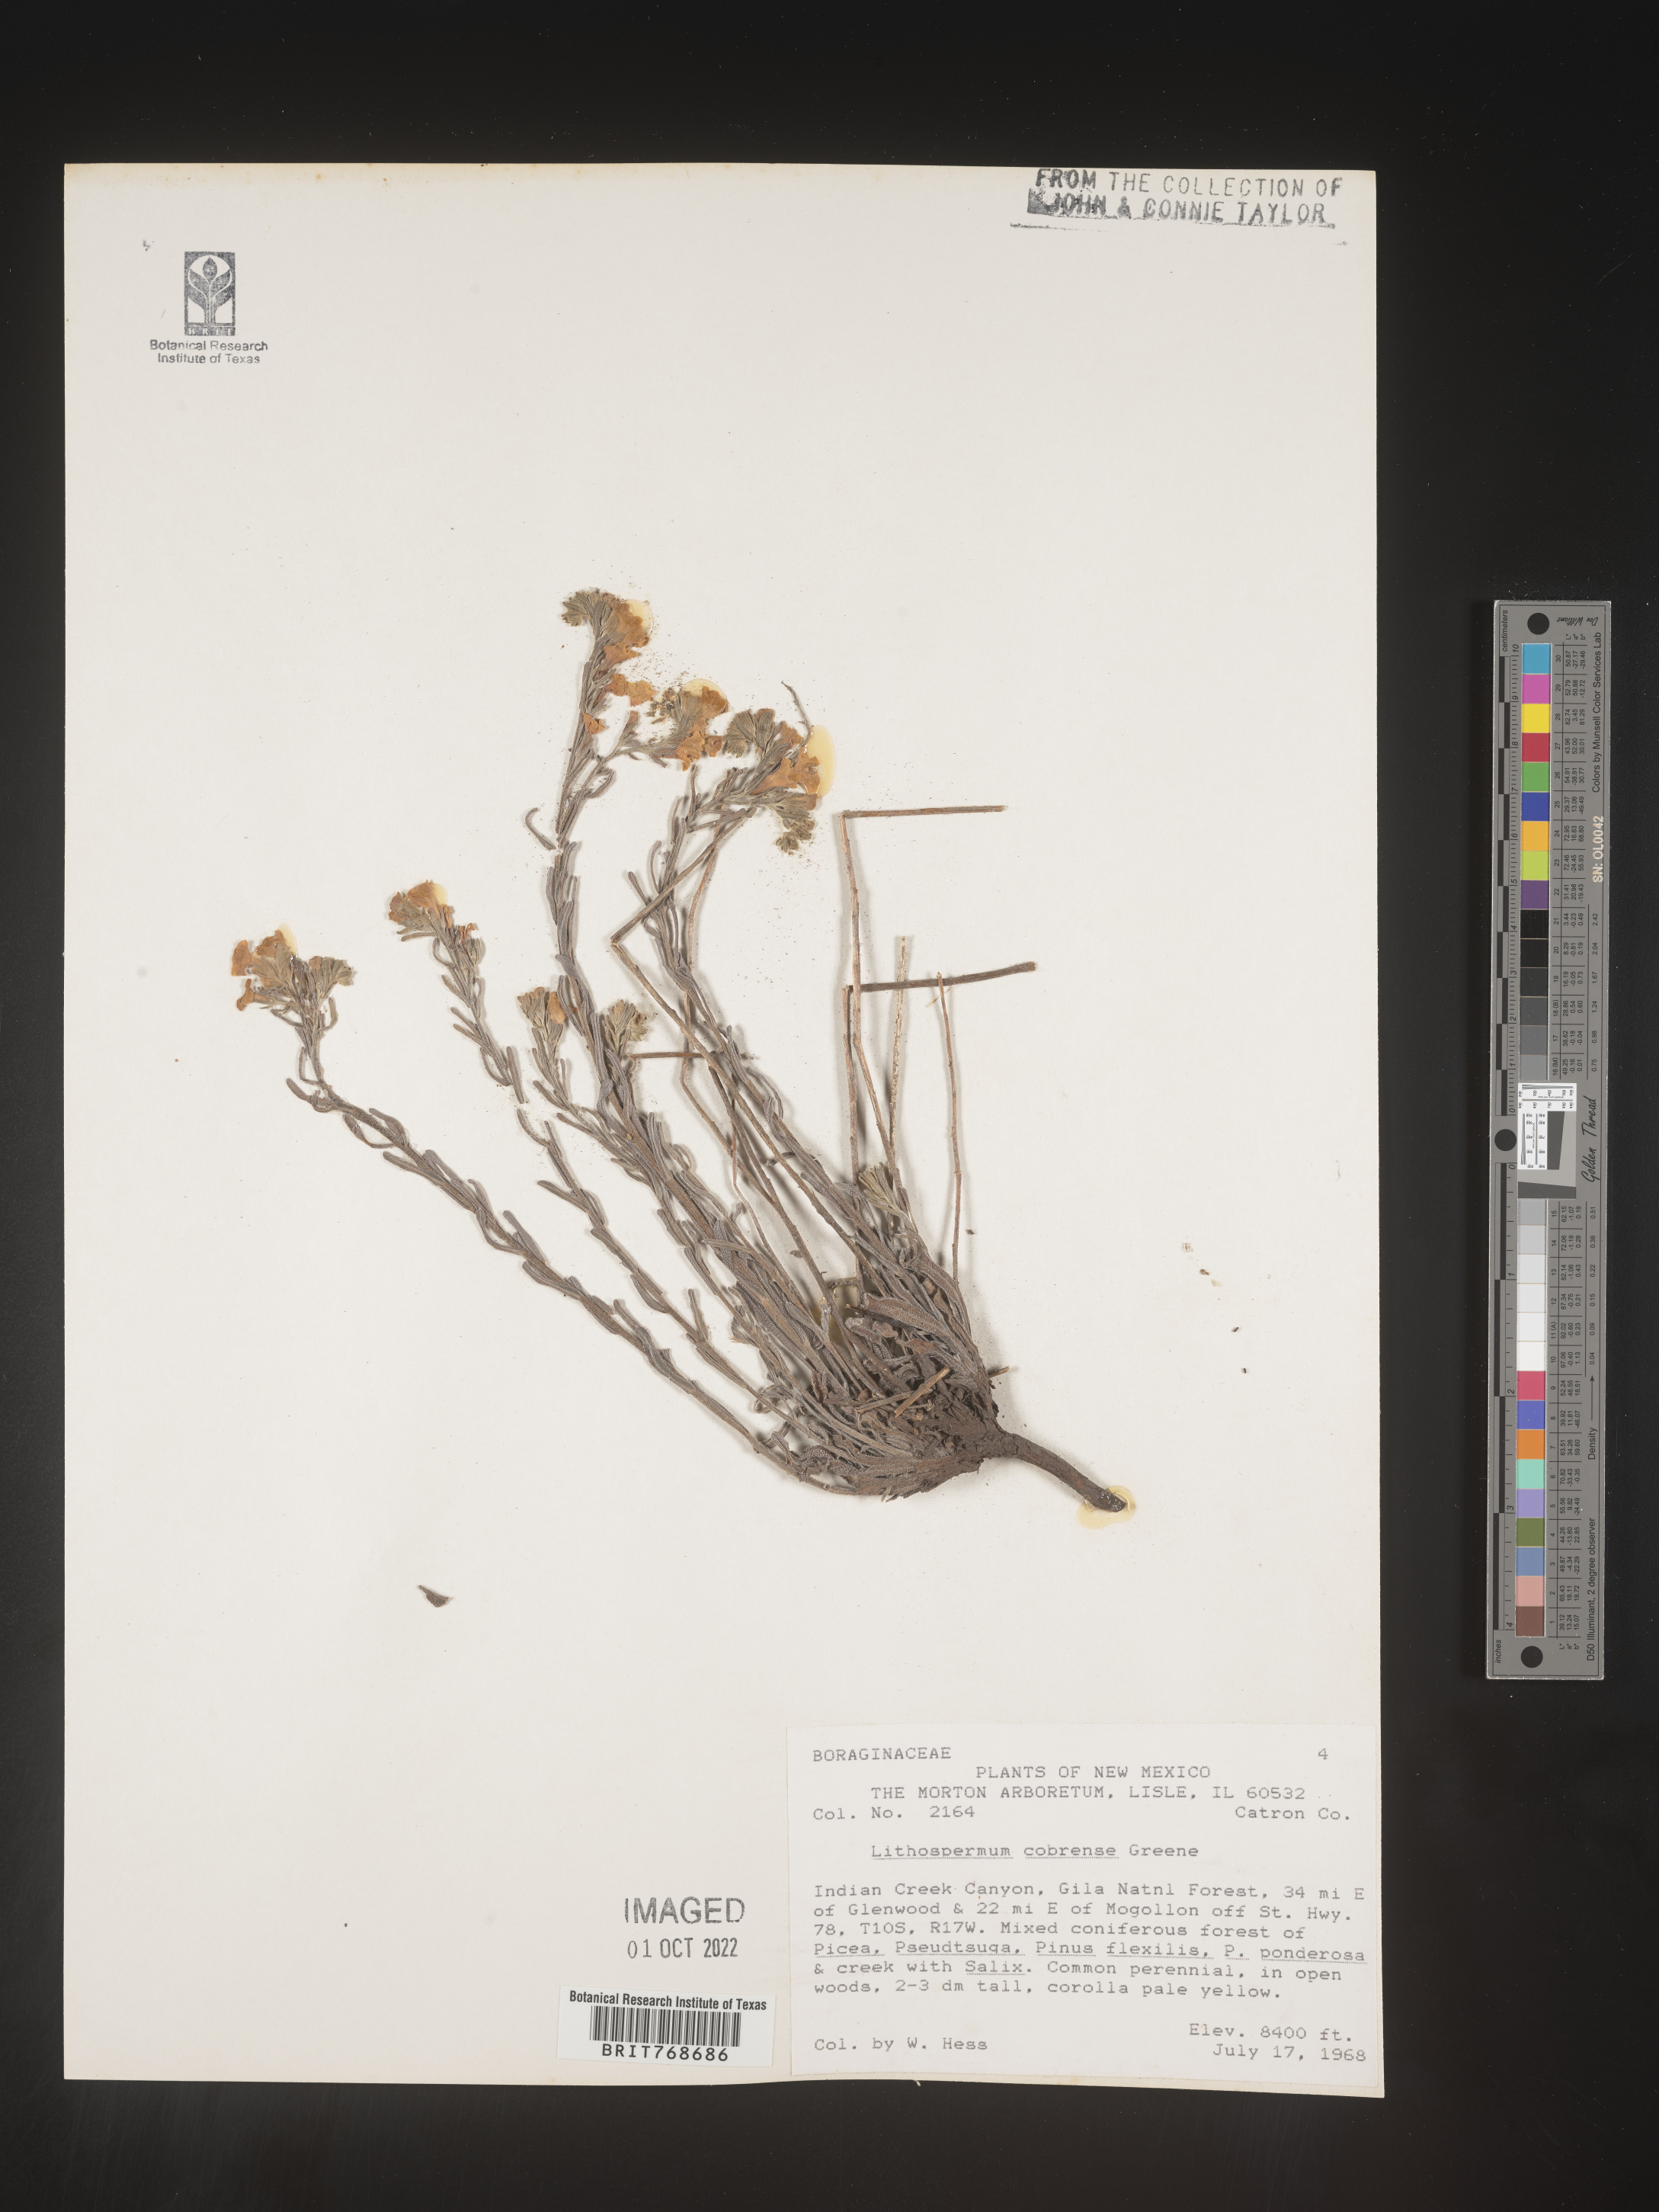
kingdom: Plantae
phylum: Tracheophyta
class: Magnoliopsida
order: Boraginales
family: Boraginaceae
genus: Lithospermum
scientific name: Lithospermum cobrense
